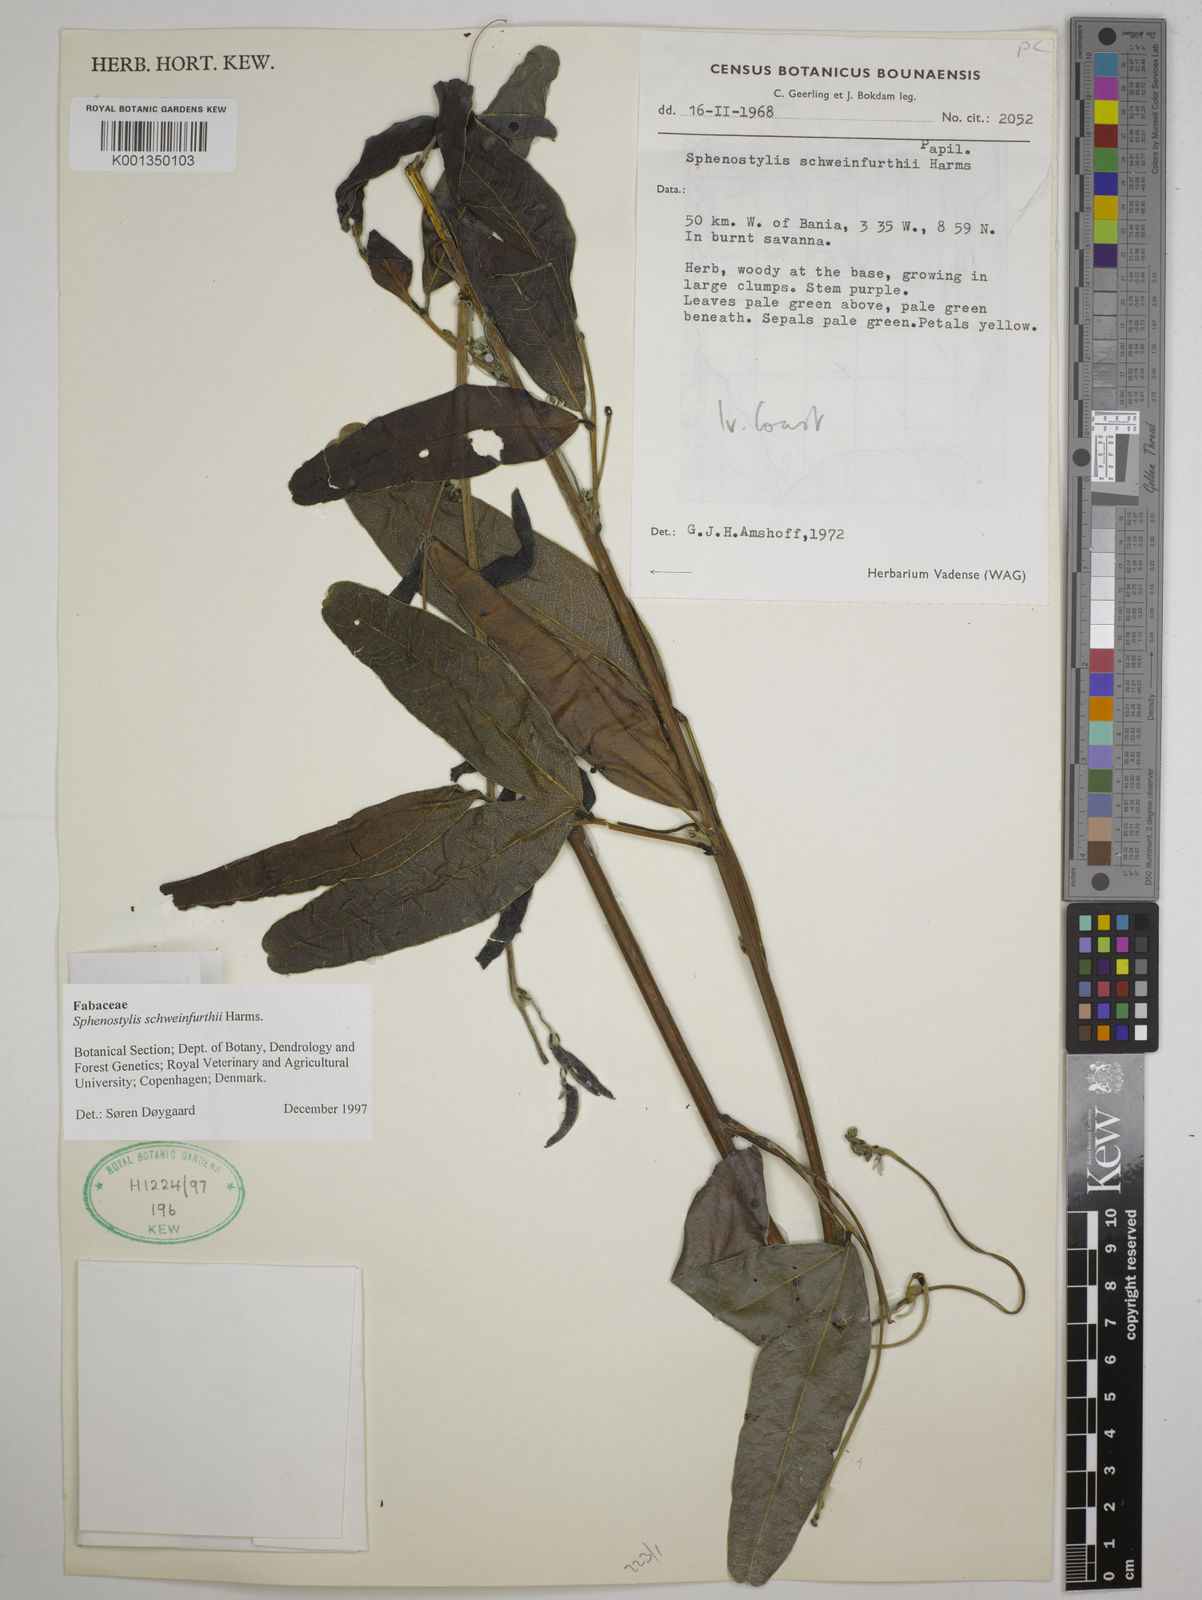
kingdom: Plantae
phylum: Tracheophyta
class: Magnoliopsida
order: Fabales
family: Fabaceae
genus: Sphenostylis
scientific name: Sphenostylis schweinfurthii
